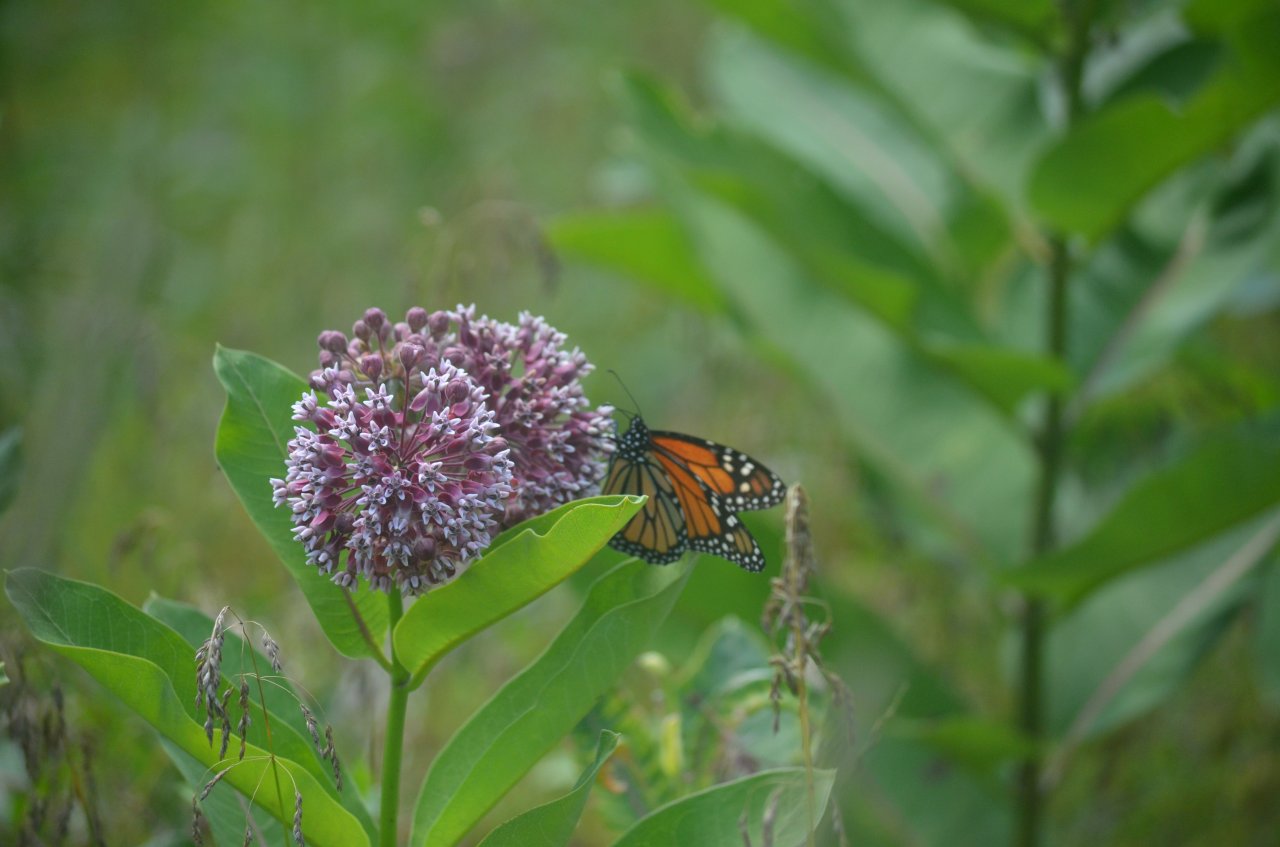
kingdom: Animalia
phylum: Arthropoda
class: Insecta
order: Lepidoptera
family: Nymphalidae
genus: Danaus
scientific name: Danaus plexippus
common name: Monarch
